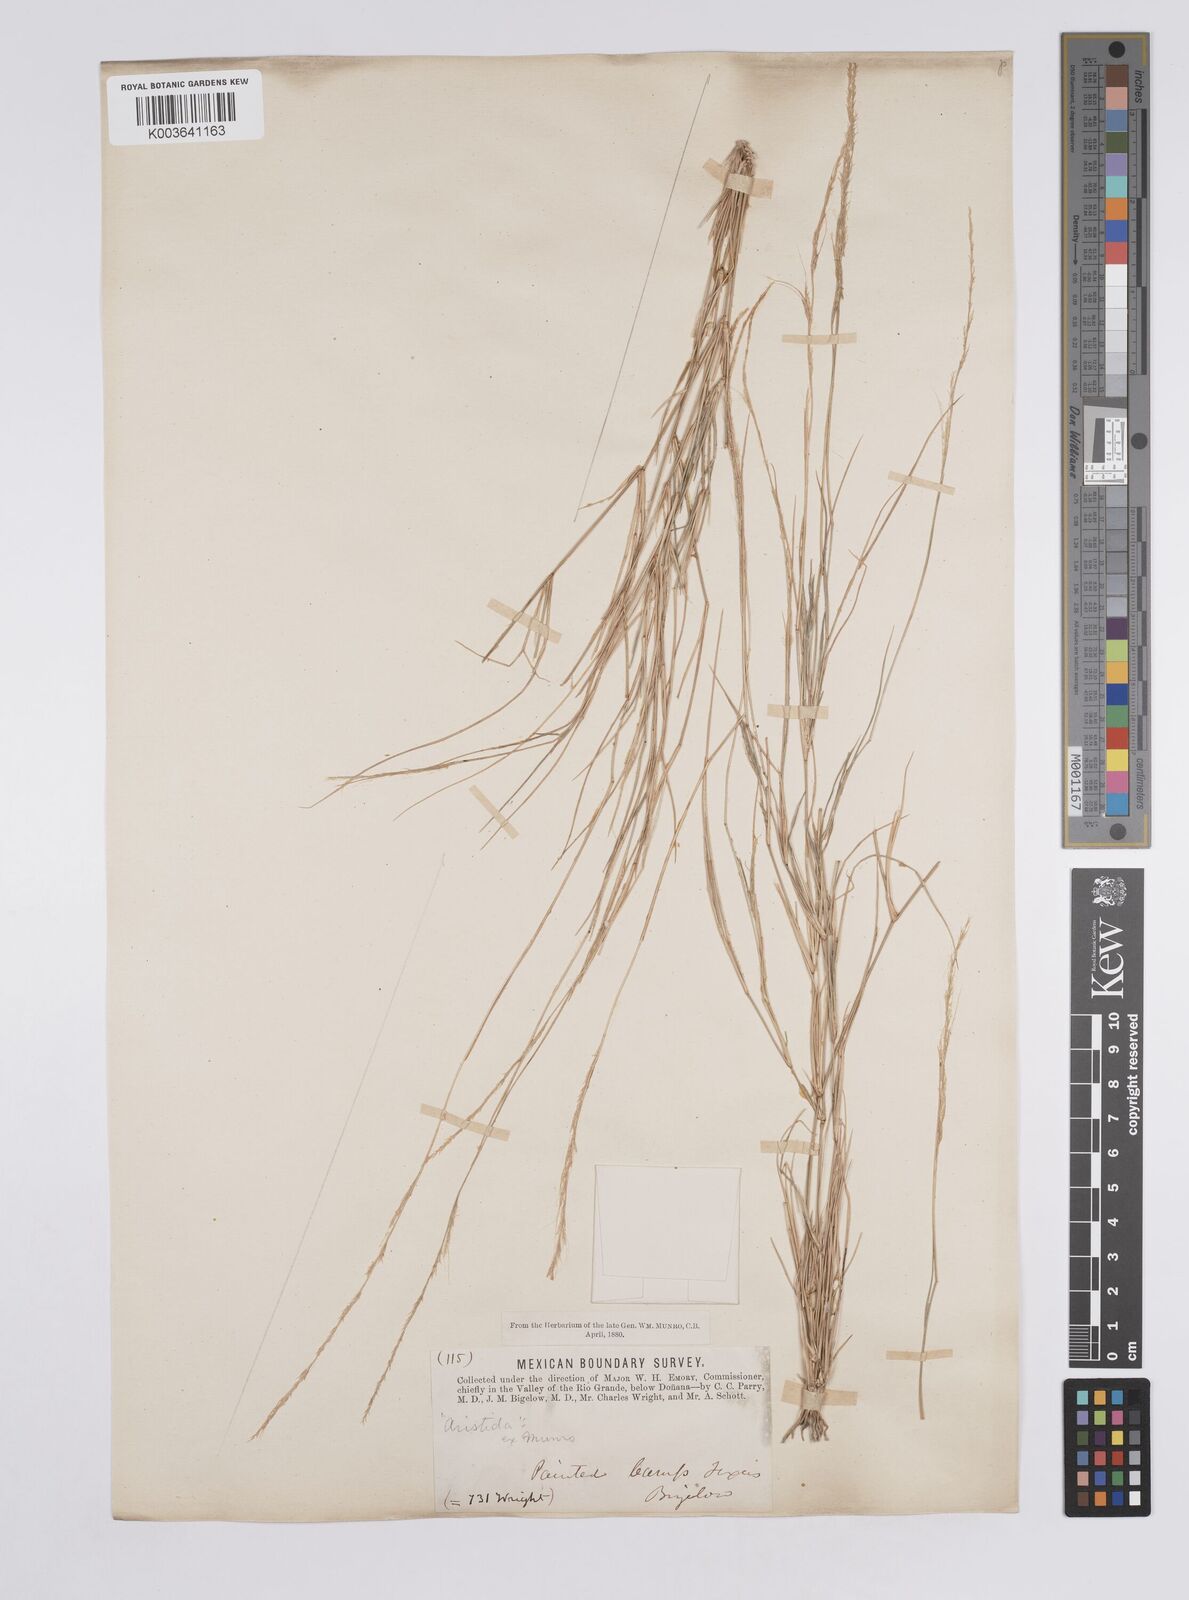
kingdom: Plantae
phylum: Tracheophyta
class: Liliopsida
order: Poales
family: Poaceae
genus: Aristida
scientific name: Aristida
